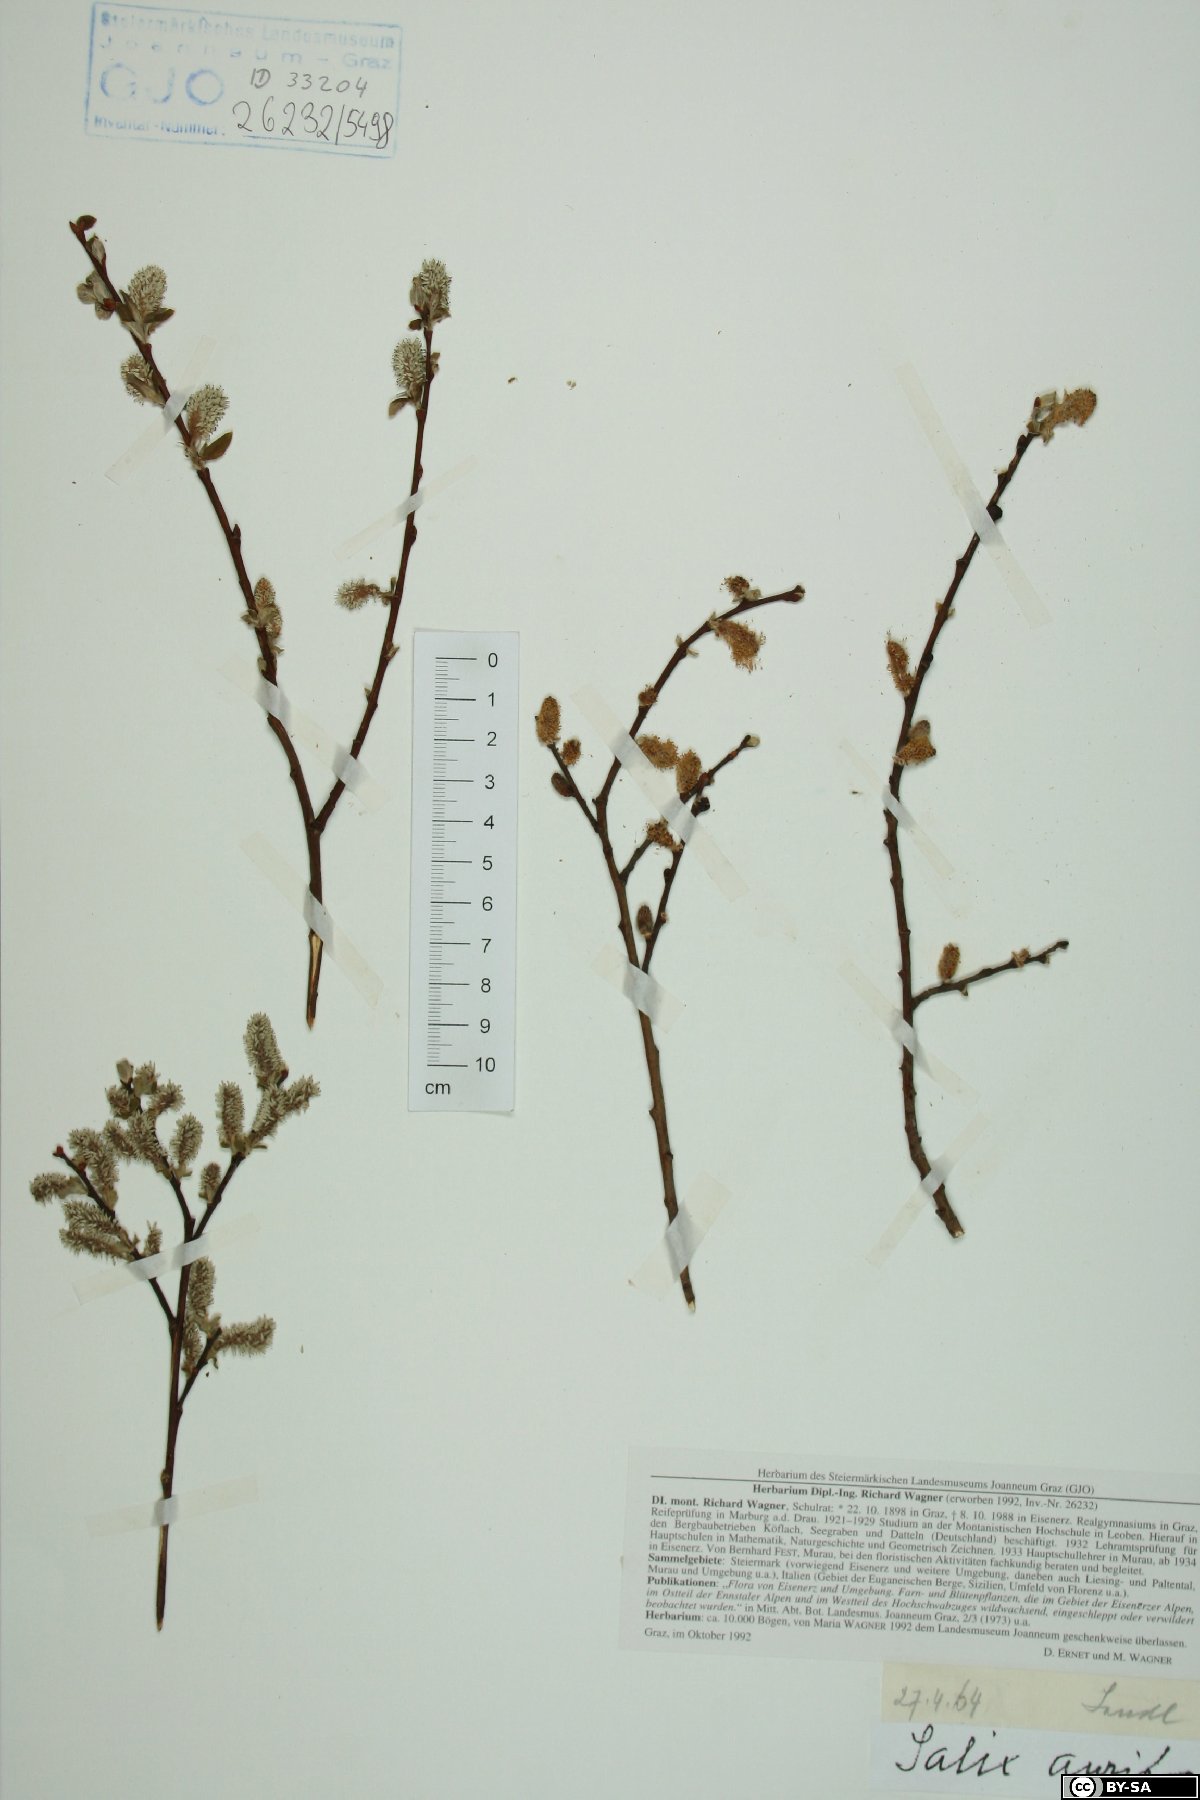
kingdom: Plantae
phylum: Tracheophyta
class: Magnoliopsida
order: Malpighiales
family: Salicaceae
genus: Salix
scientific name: Salix aurita
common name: Eared willow
